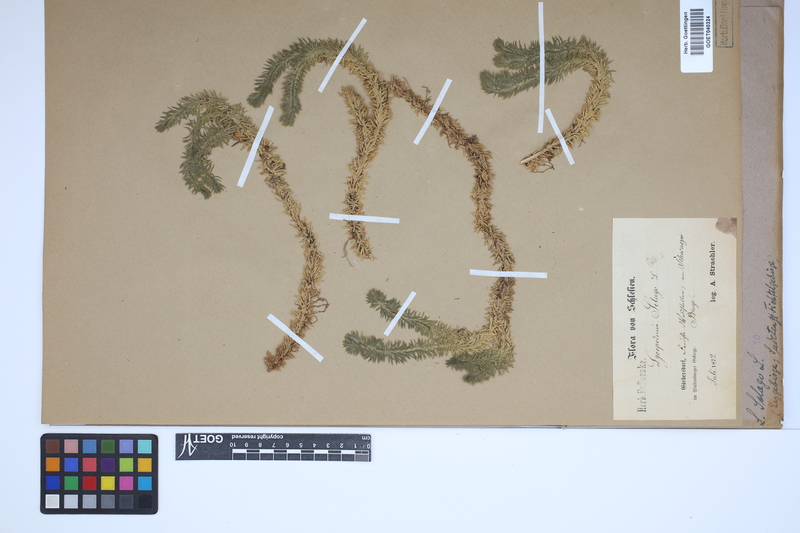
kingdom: Plantae
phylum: Tracheophyta
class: Lycopodiopsida
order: Lycopodiales
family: Lycopodiaceae
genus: Huperzia
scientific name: Huperzia selago
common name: Northern firmoss
